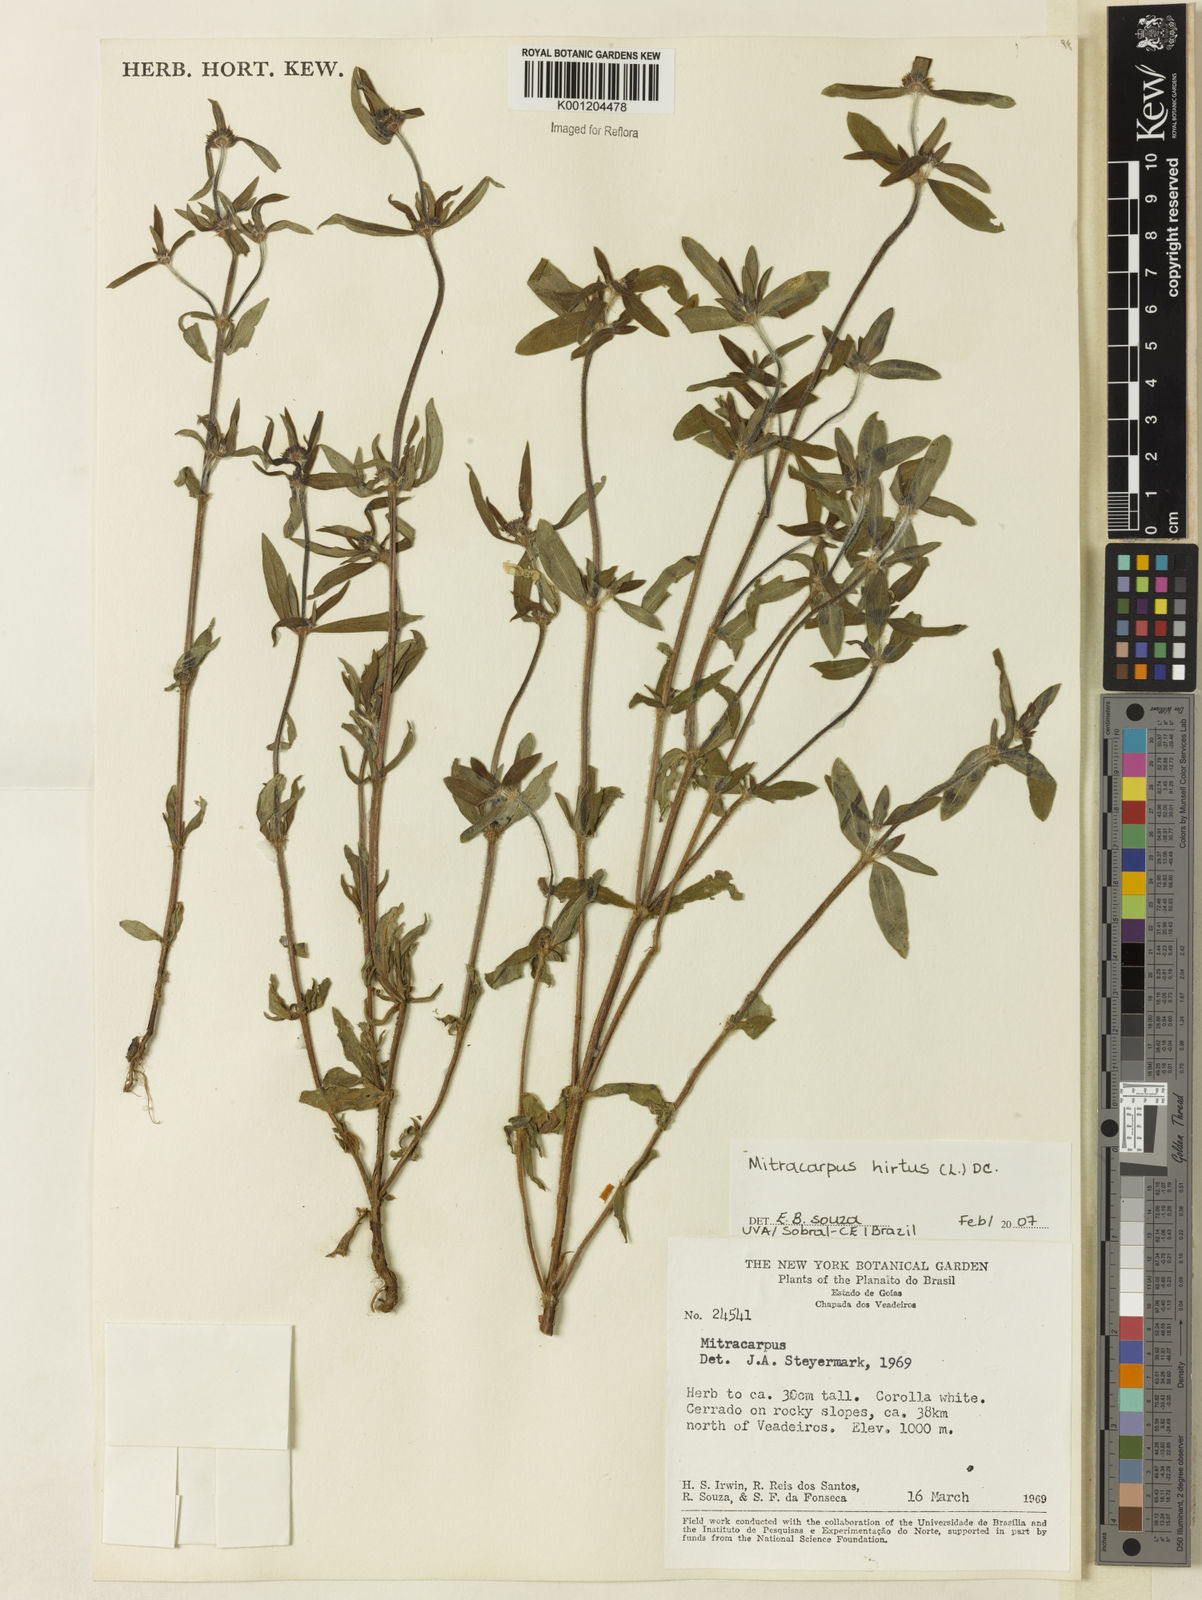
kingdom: Plantae
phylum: Tracheophyta
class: Magnoliopsida
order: Gentianales
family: Rubiaceae
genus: Mitracarpus
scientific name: Mitracarpus hirtus
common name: Tropical girdlepod
